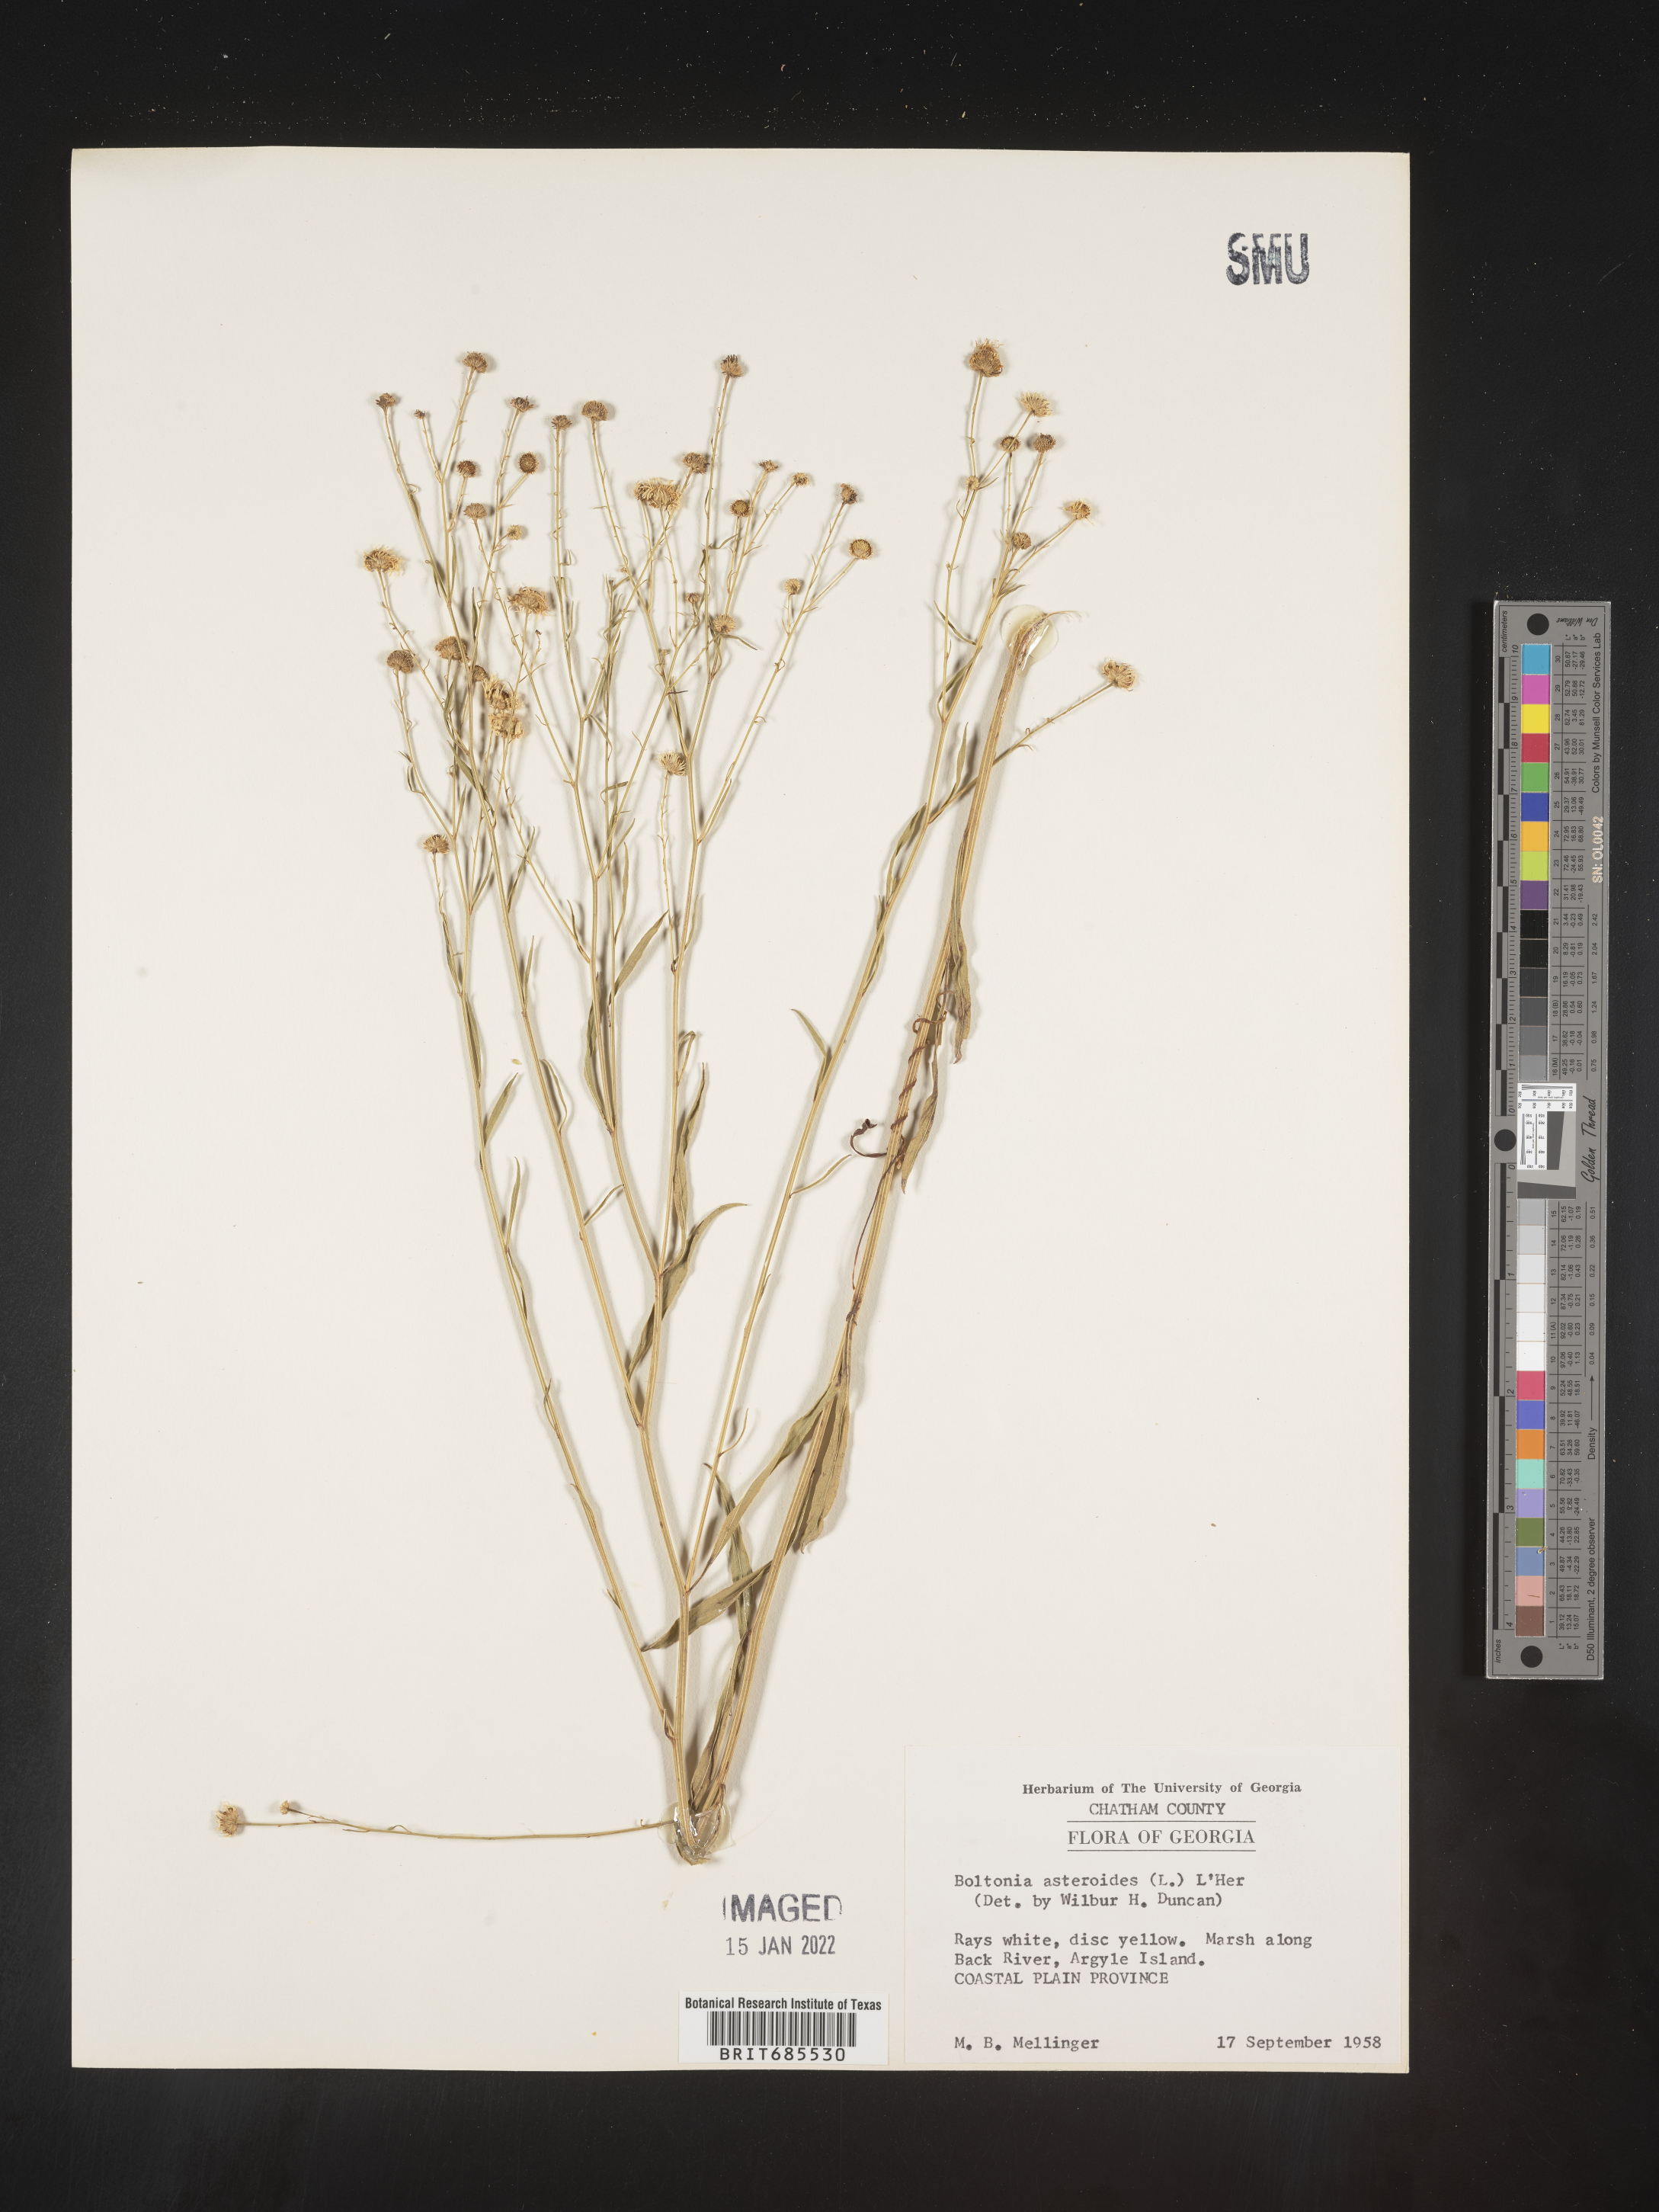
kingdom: Plantae
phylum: Tracheophyta
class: Magnoliopsida
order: Asterales
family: Asteraceae
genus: Boltonia
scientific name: Boltonia asteroides
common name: False chamomile
